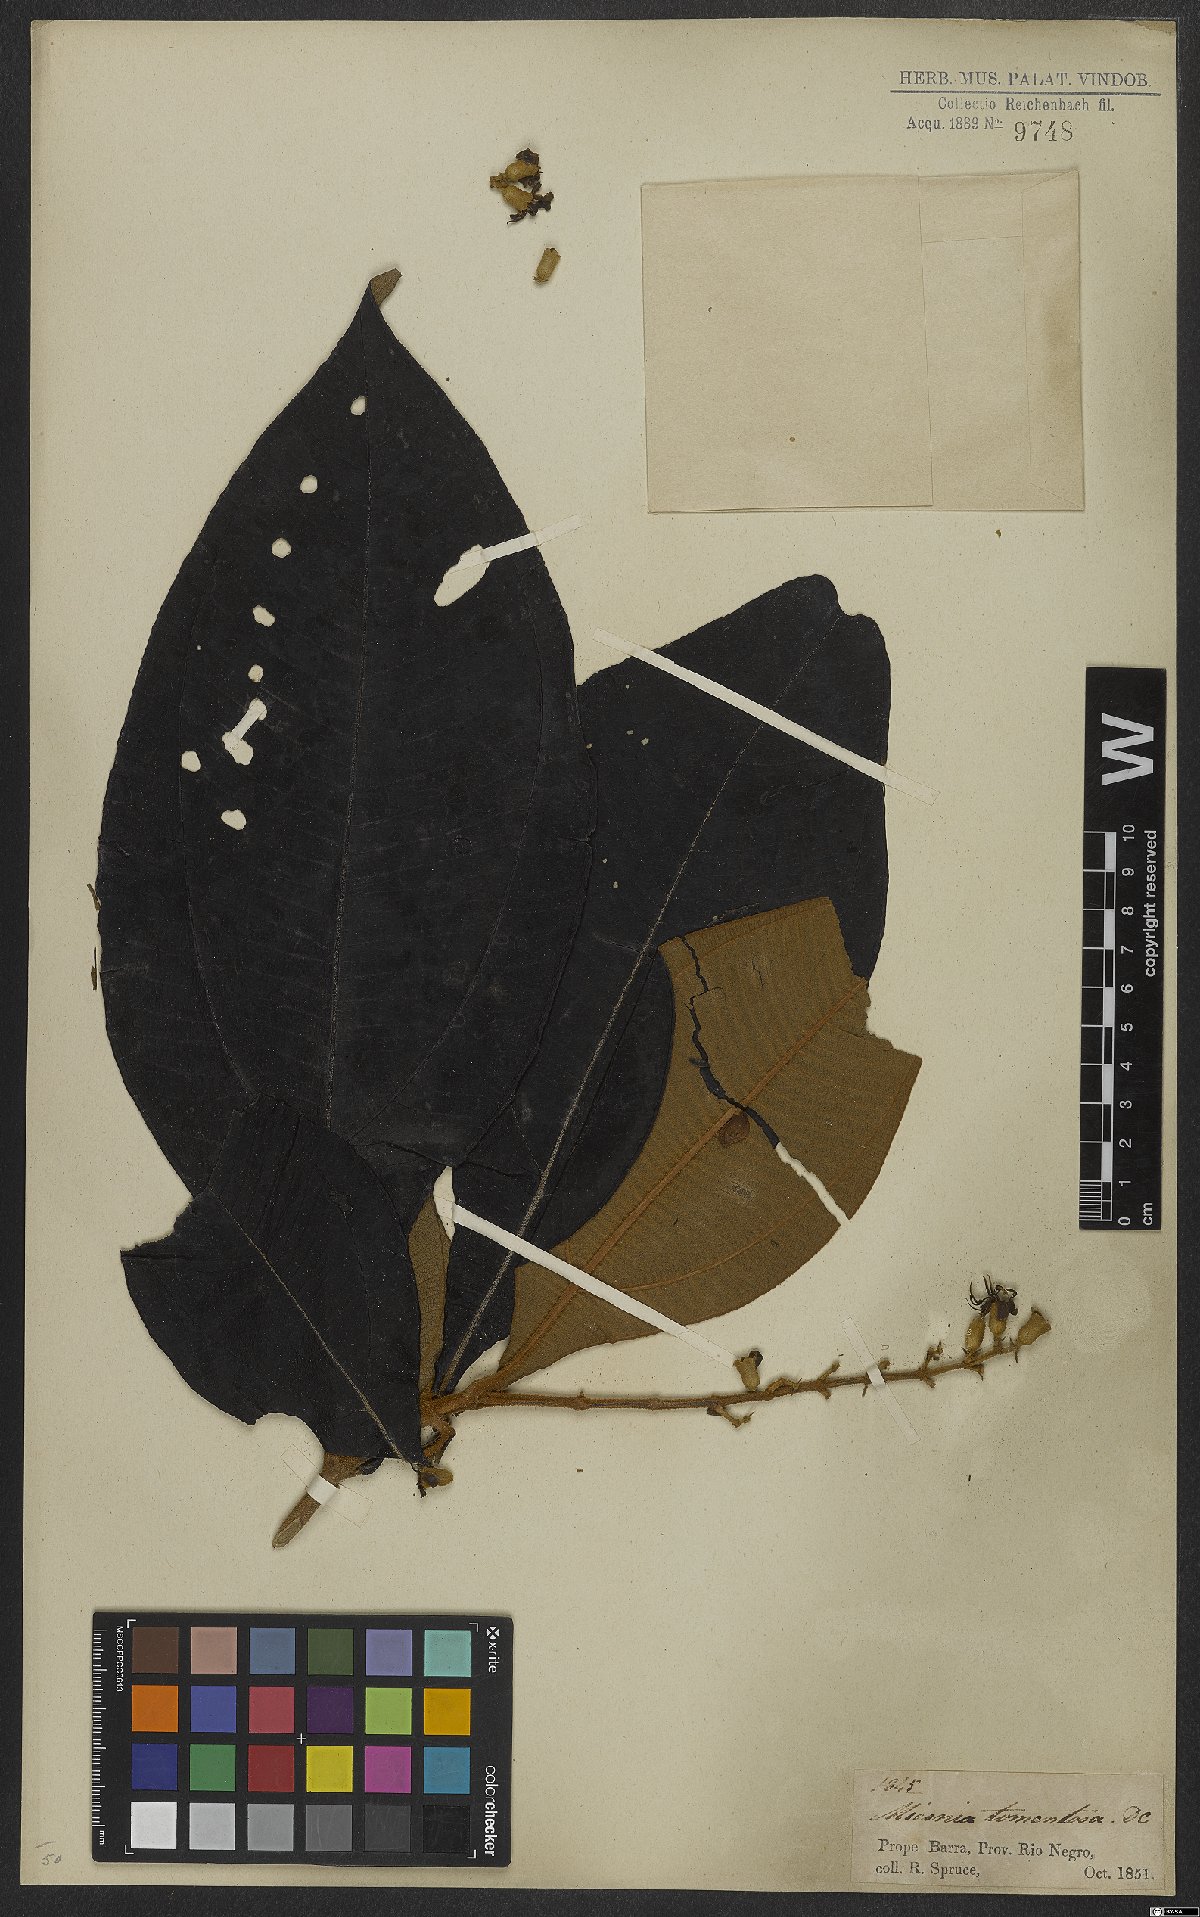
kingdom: Plantae
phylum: Tracheophyta
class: Magnoliopsida
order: Myrtales
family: Melastomataceae
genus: Miconia
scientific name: Miconia tomentosa
